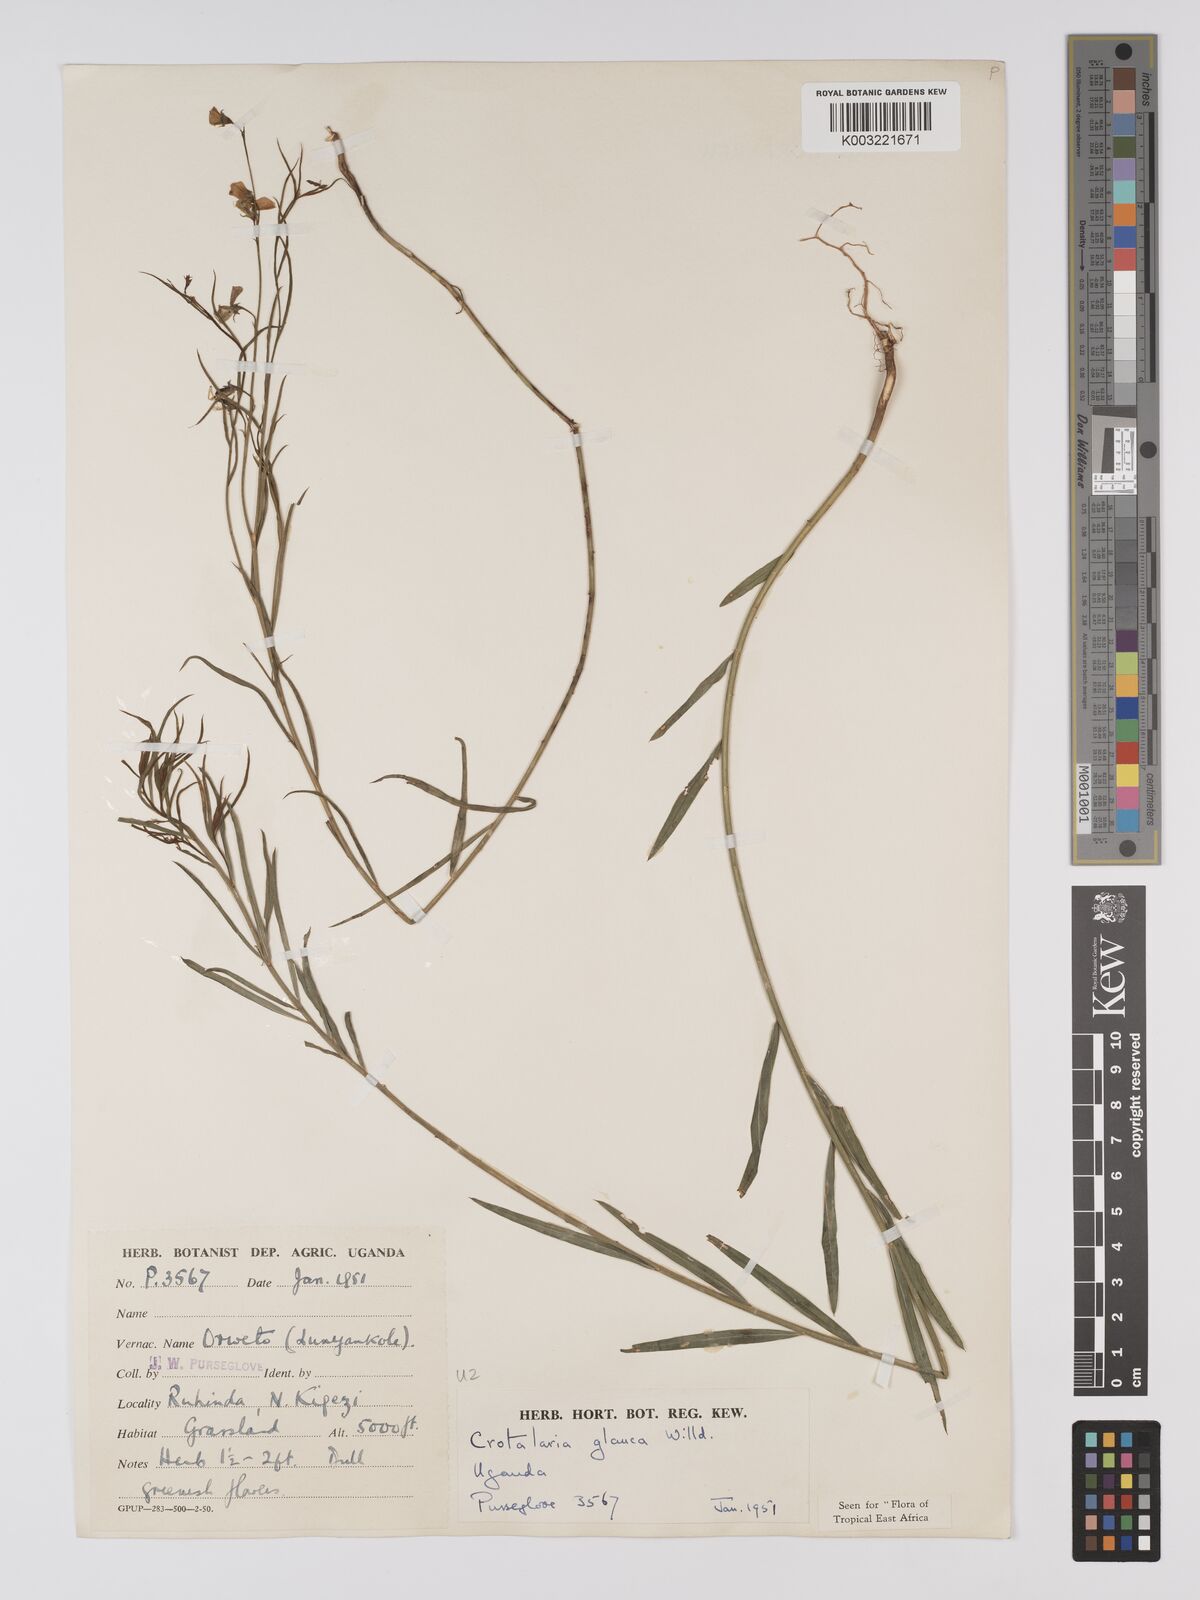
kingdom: Plantae
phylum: Tracheophyta
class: Magnoliopsida
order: Fabales
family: Fabaceae
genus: Crotalaria
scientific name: Crotalaria glauca
